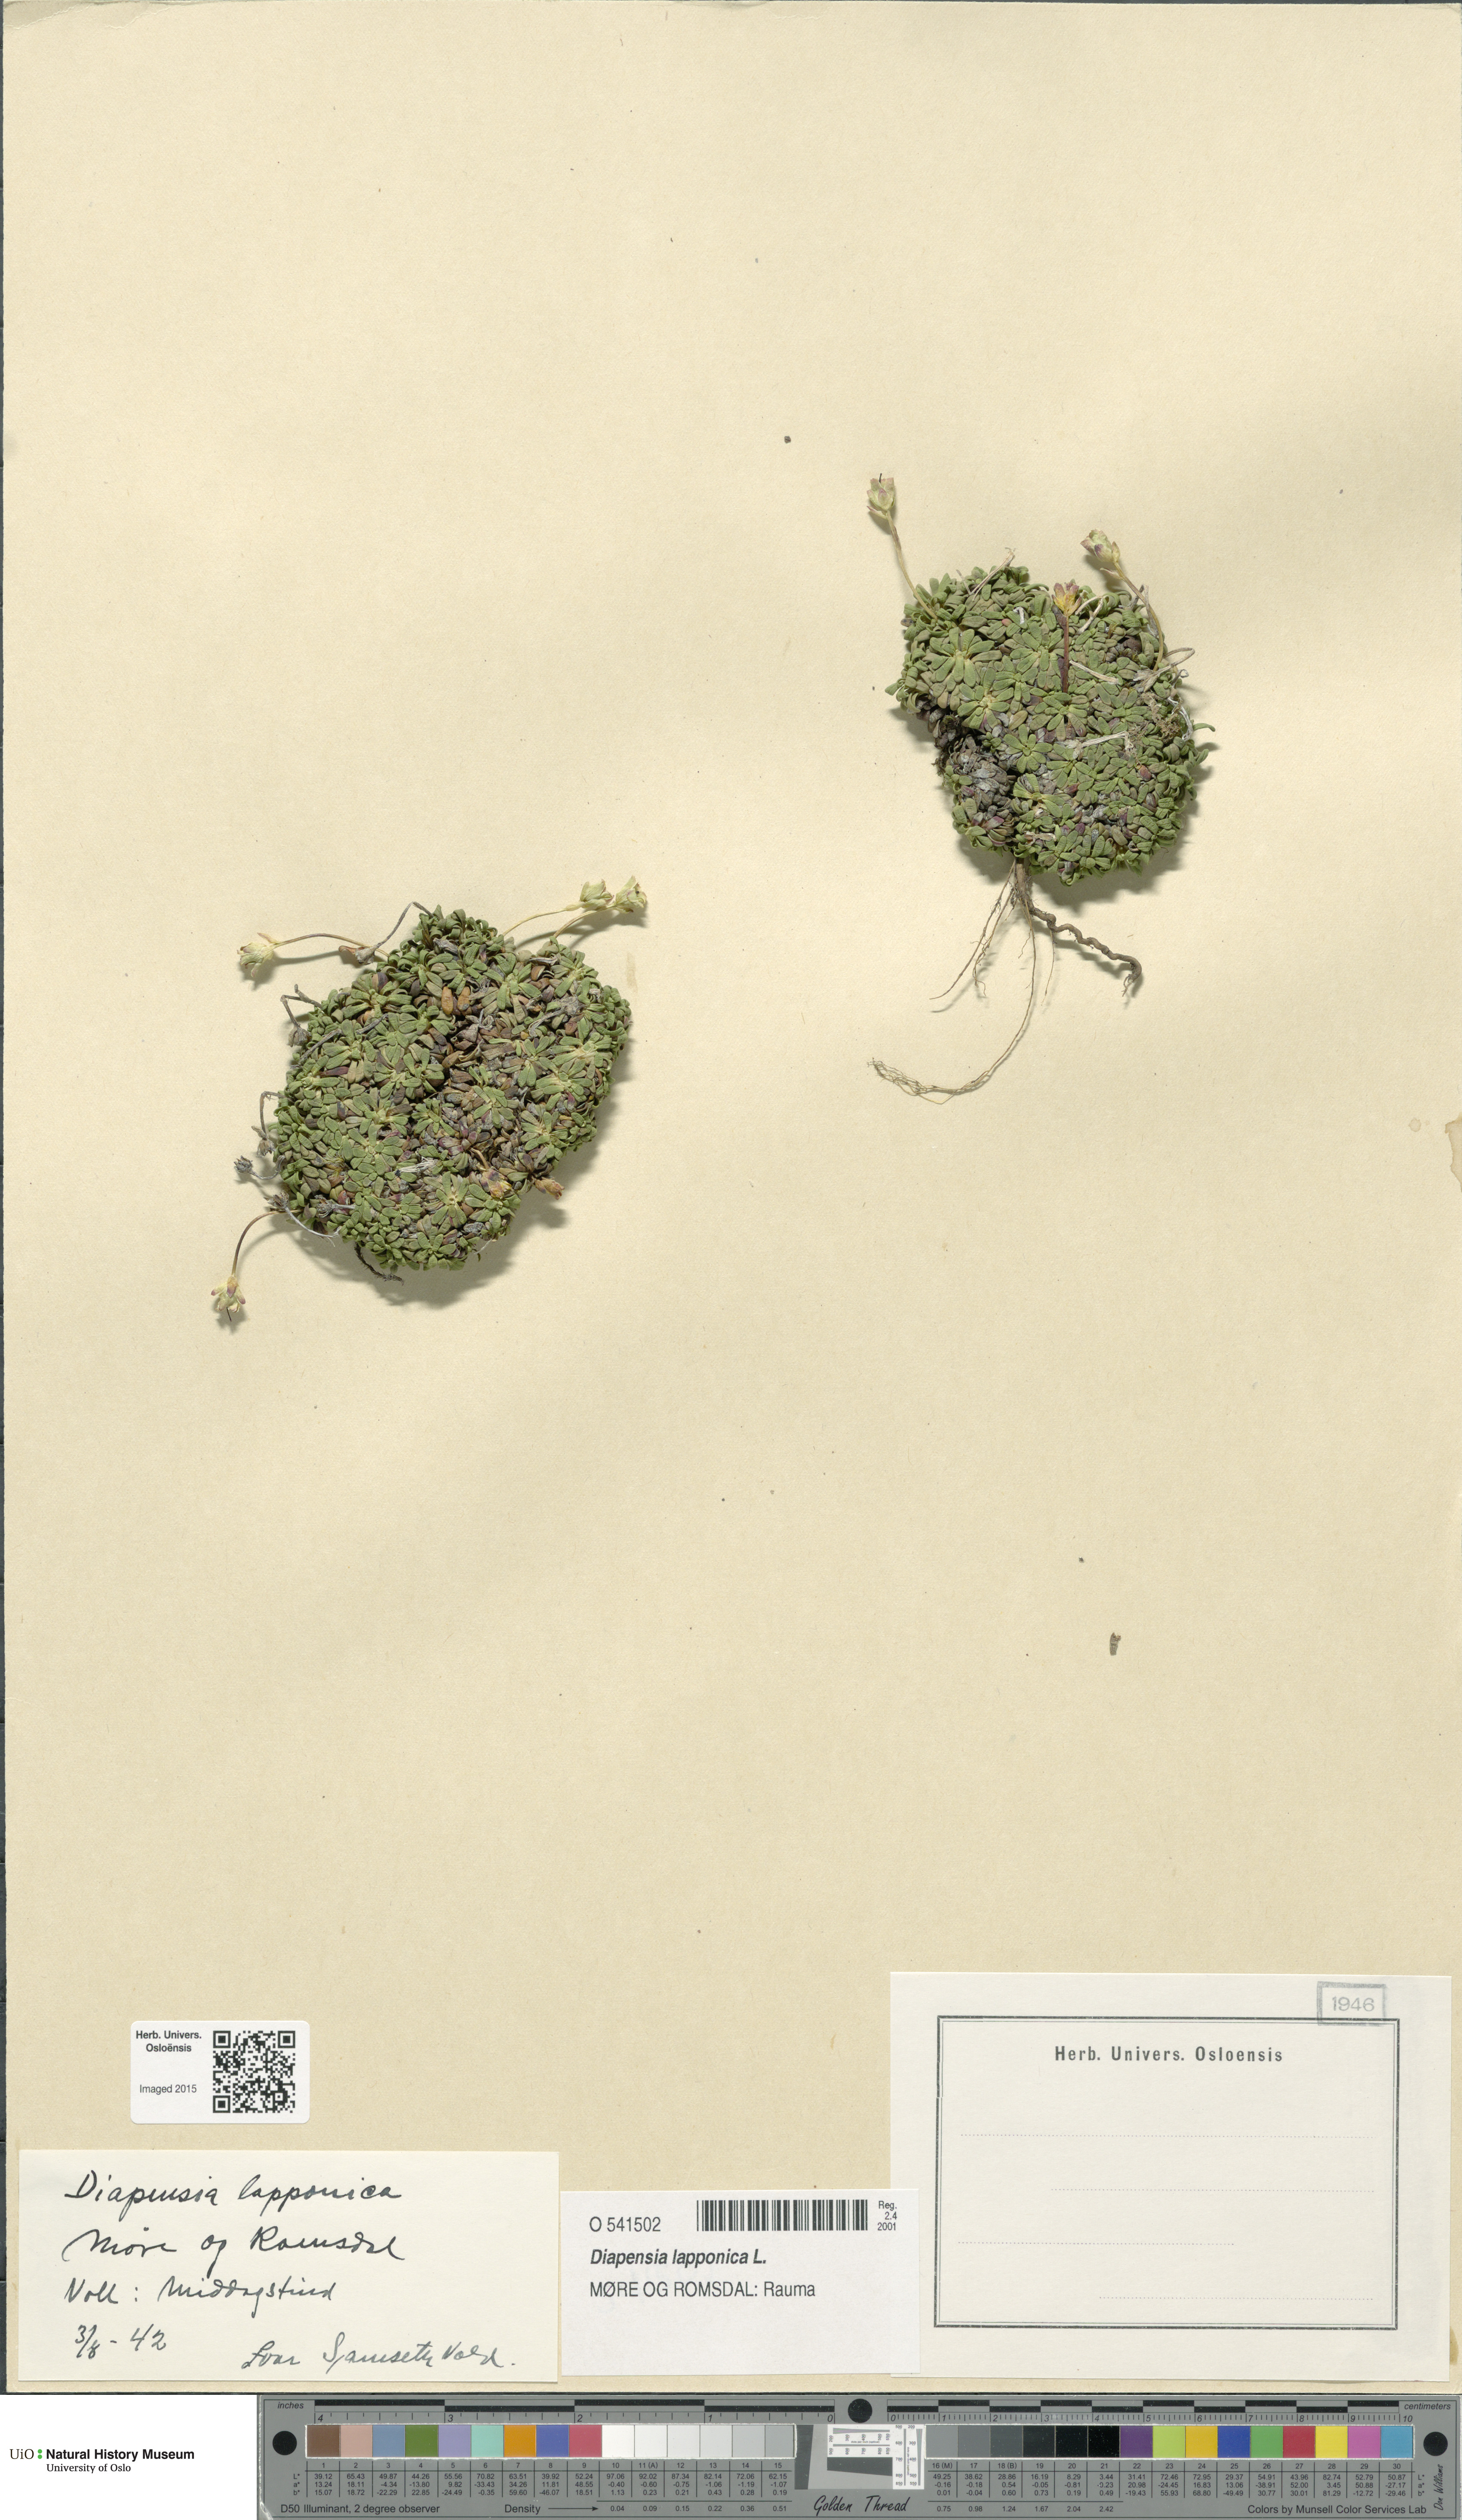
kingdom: Plantae
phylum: Tracheophyta
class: Magnoliopsida
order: Ericales
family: Diapensiaceae
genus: Diapensia
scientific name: Diapensia lapponica
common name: Diapensia
